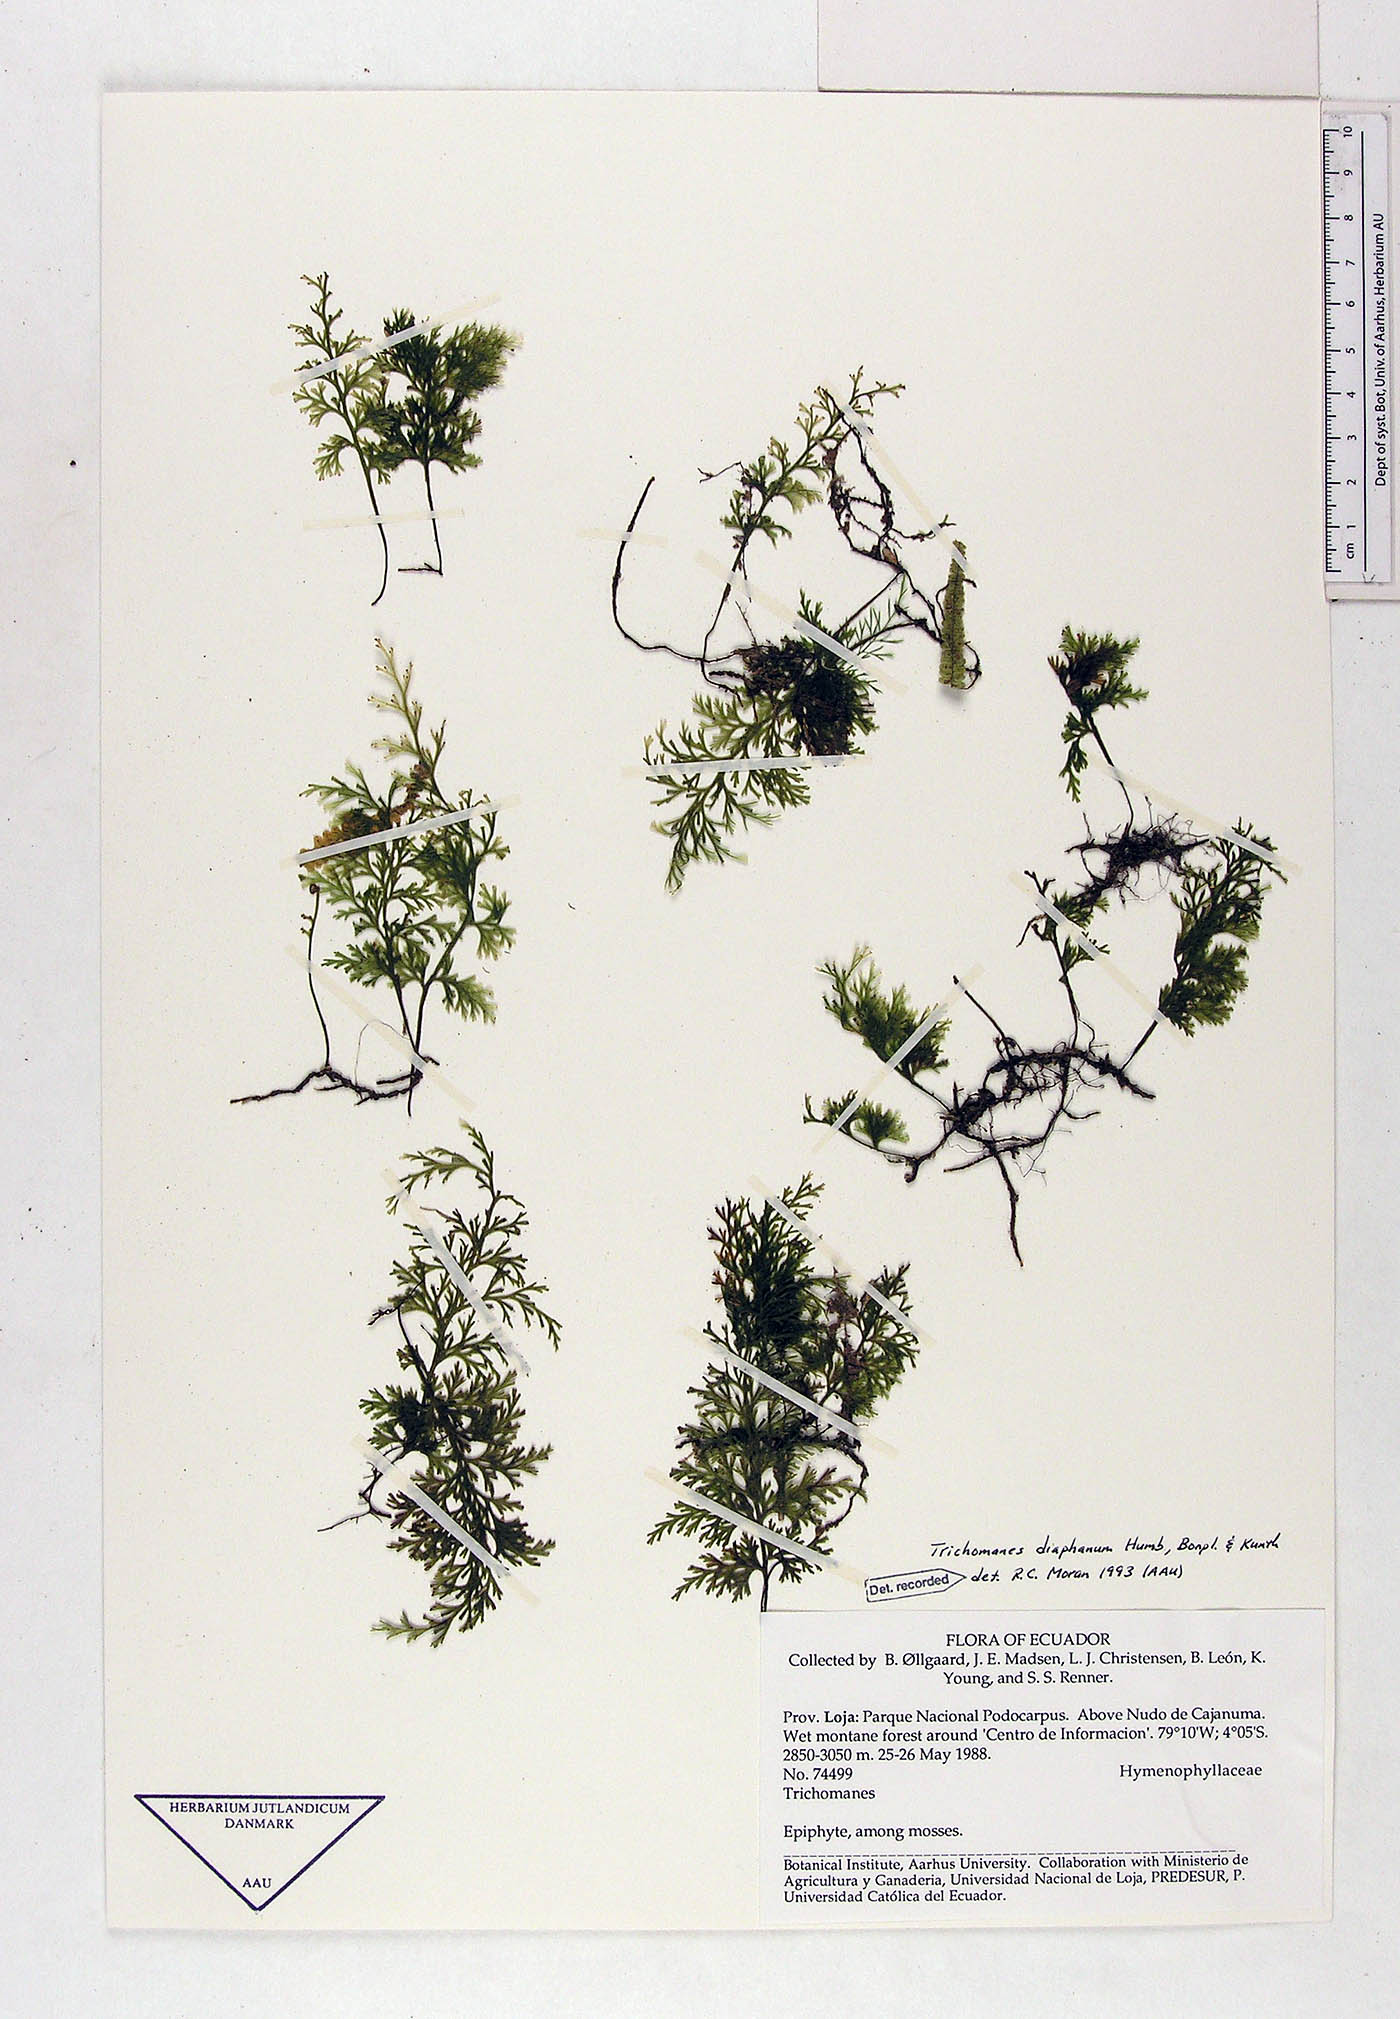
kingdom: Plantae
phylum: Tracheophyta
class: Polypodiopsida
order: Hymenophyllales
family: Hymenophyllaceae
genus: Polyphlebium
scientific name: Polyphlebium diaphanum
